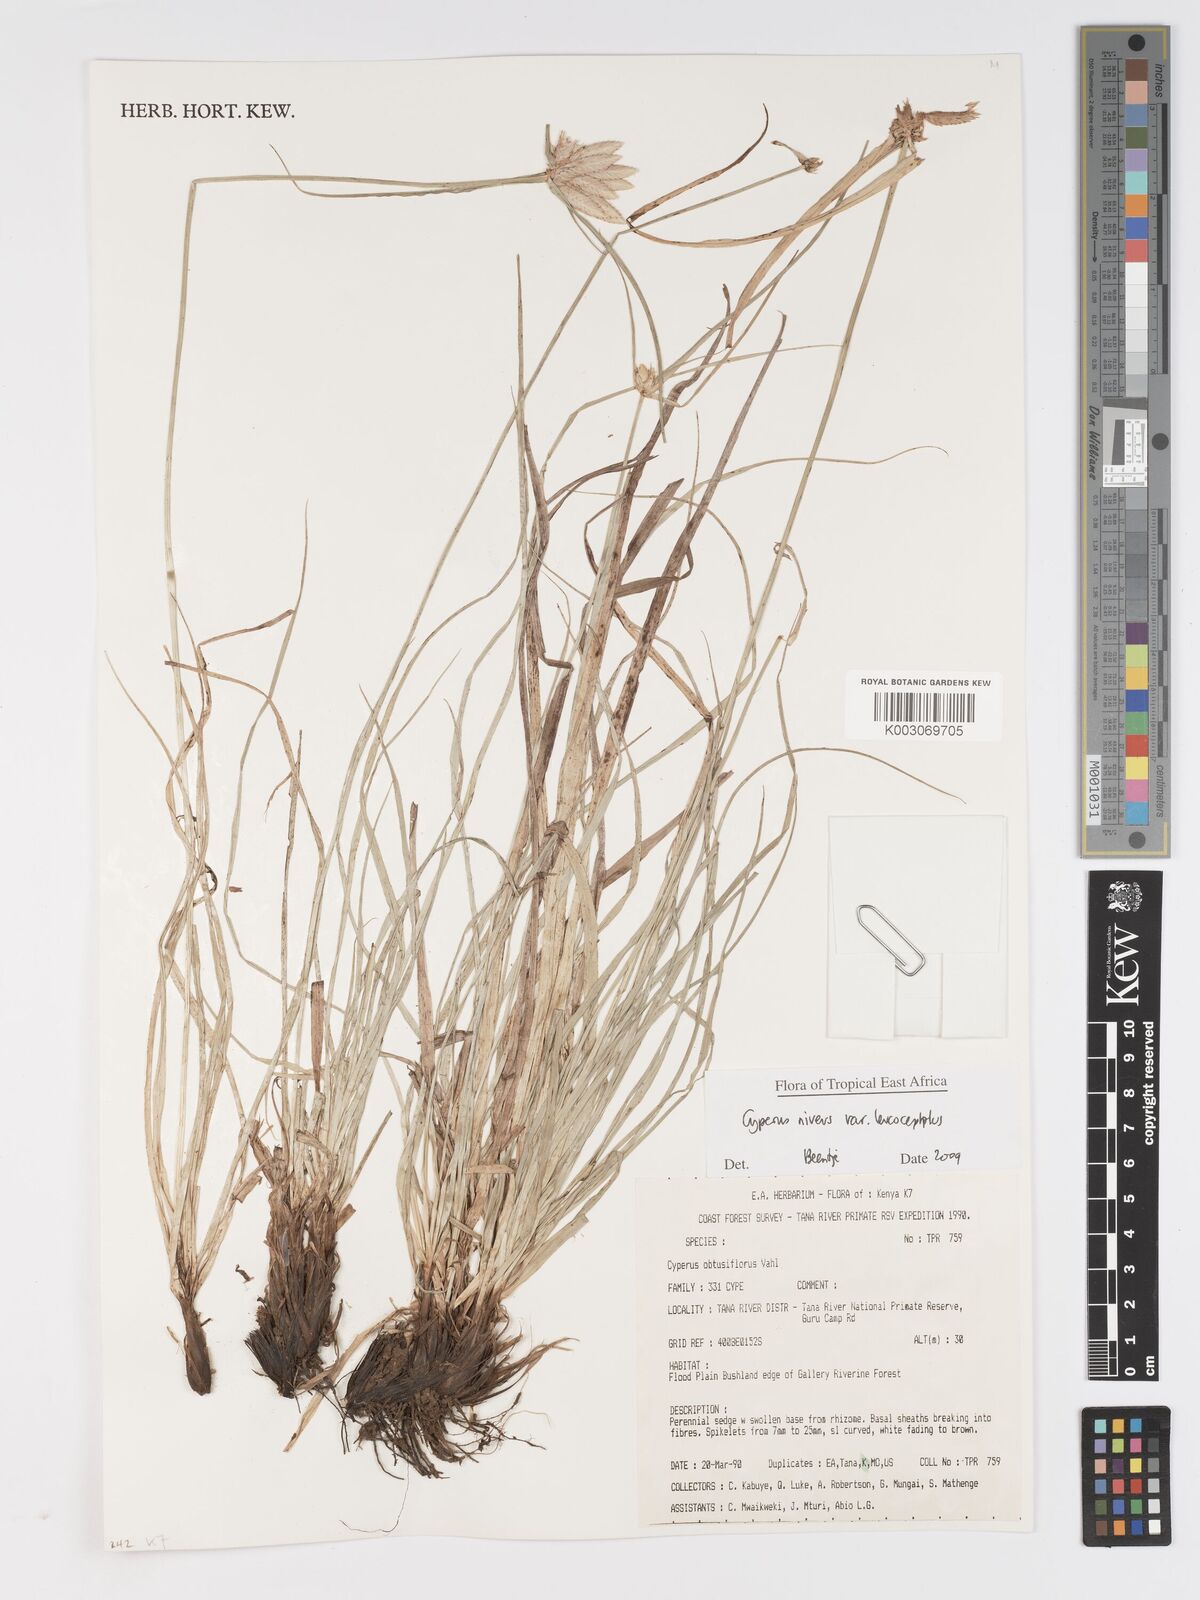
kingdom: Plantae
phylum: Tracheophyta
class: Liliopsida
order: Poales
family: Cyperaceae
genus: Cyperus
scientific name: Cyperus niveus
